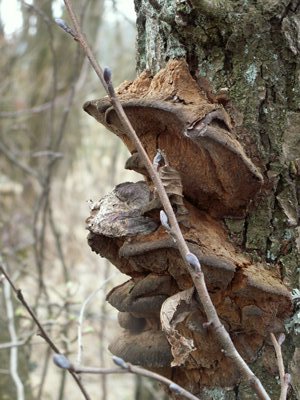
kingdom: Fungi
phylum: Basidiomycota
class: Agaricomycetes
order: Hymenochaetales
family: Hymenochaetaceae
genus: Xanthoporia
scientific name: Xanthoporia radiata
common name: elle-spejlporesvamp
